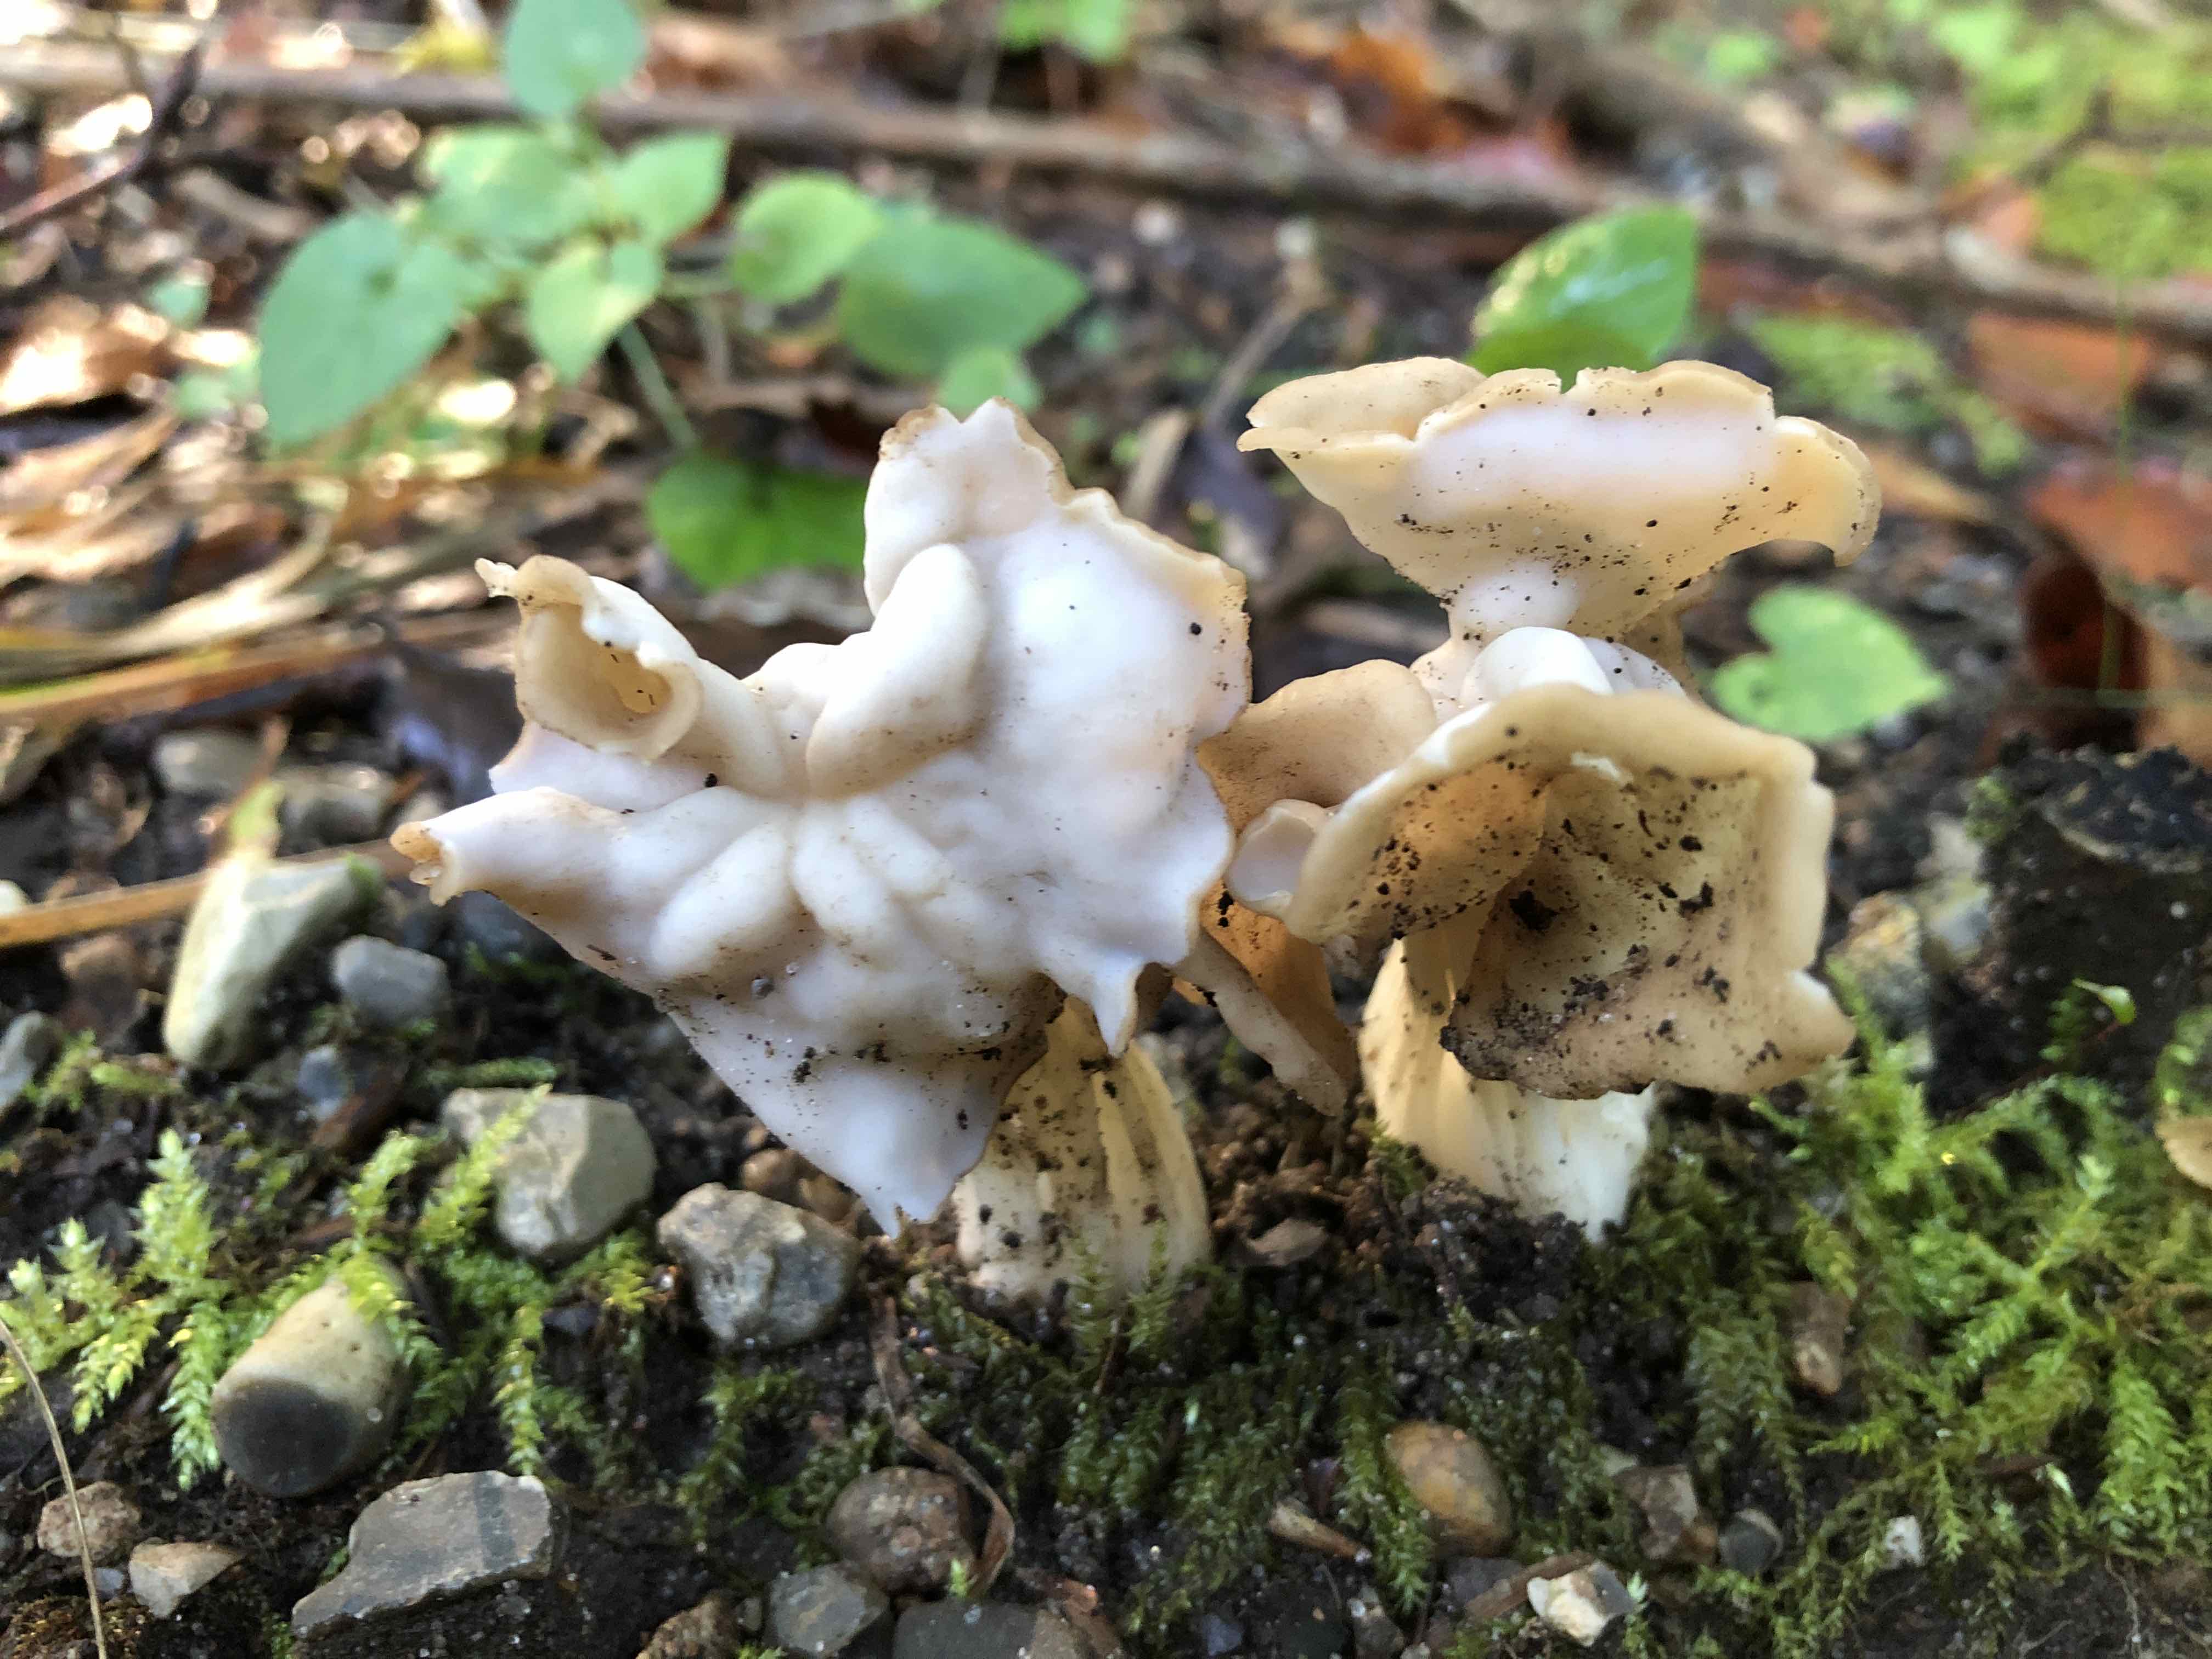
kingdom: Fungi
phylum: Ascomycota
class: Pezizomycetes
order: Pezizales
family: Helvellaceae
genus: Helvella
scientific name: Helvella crispa
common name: kruset foldhat
